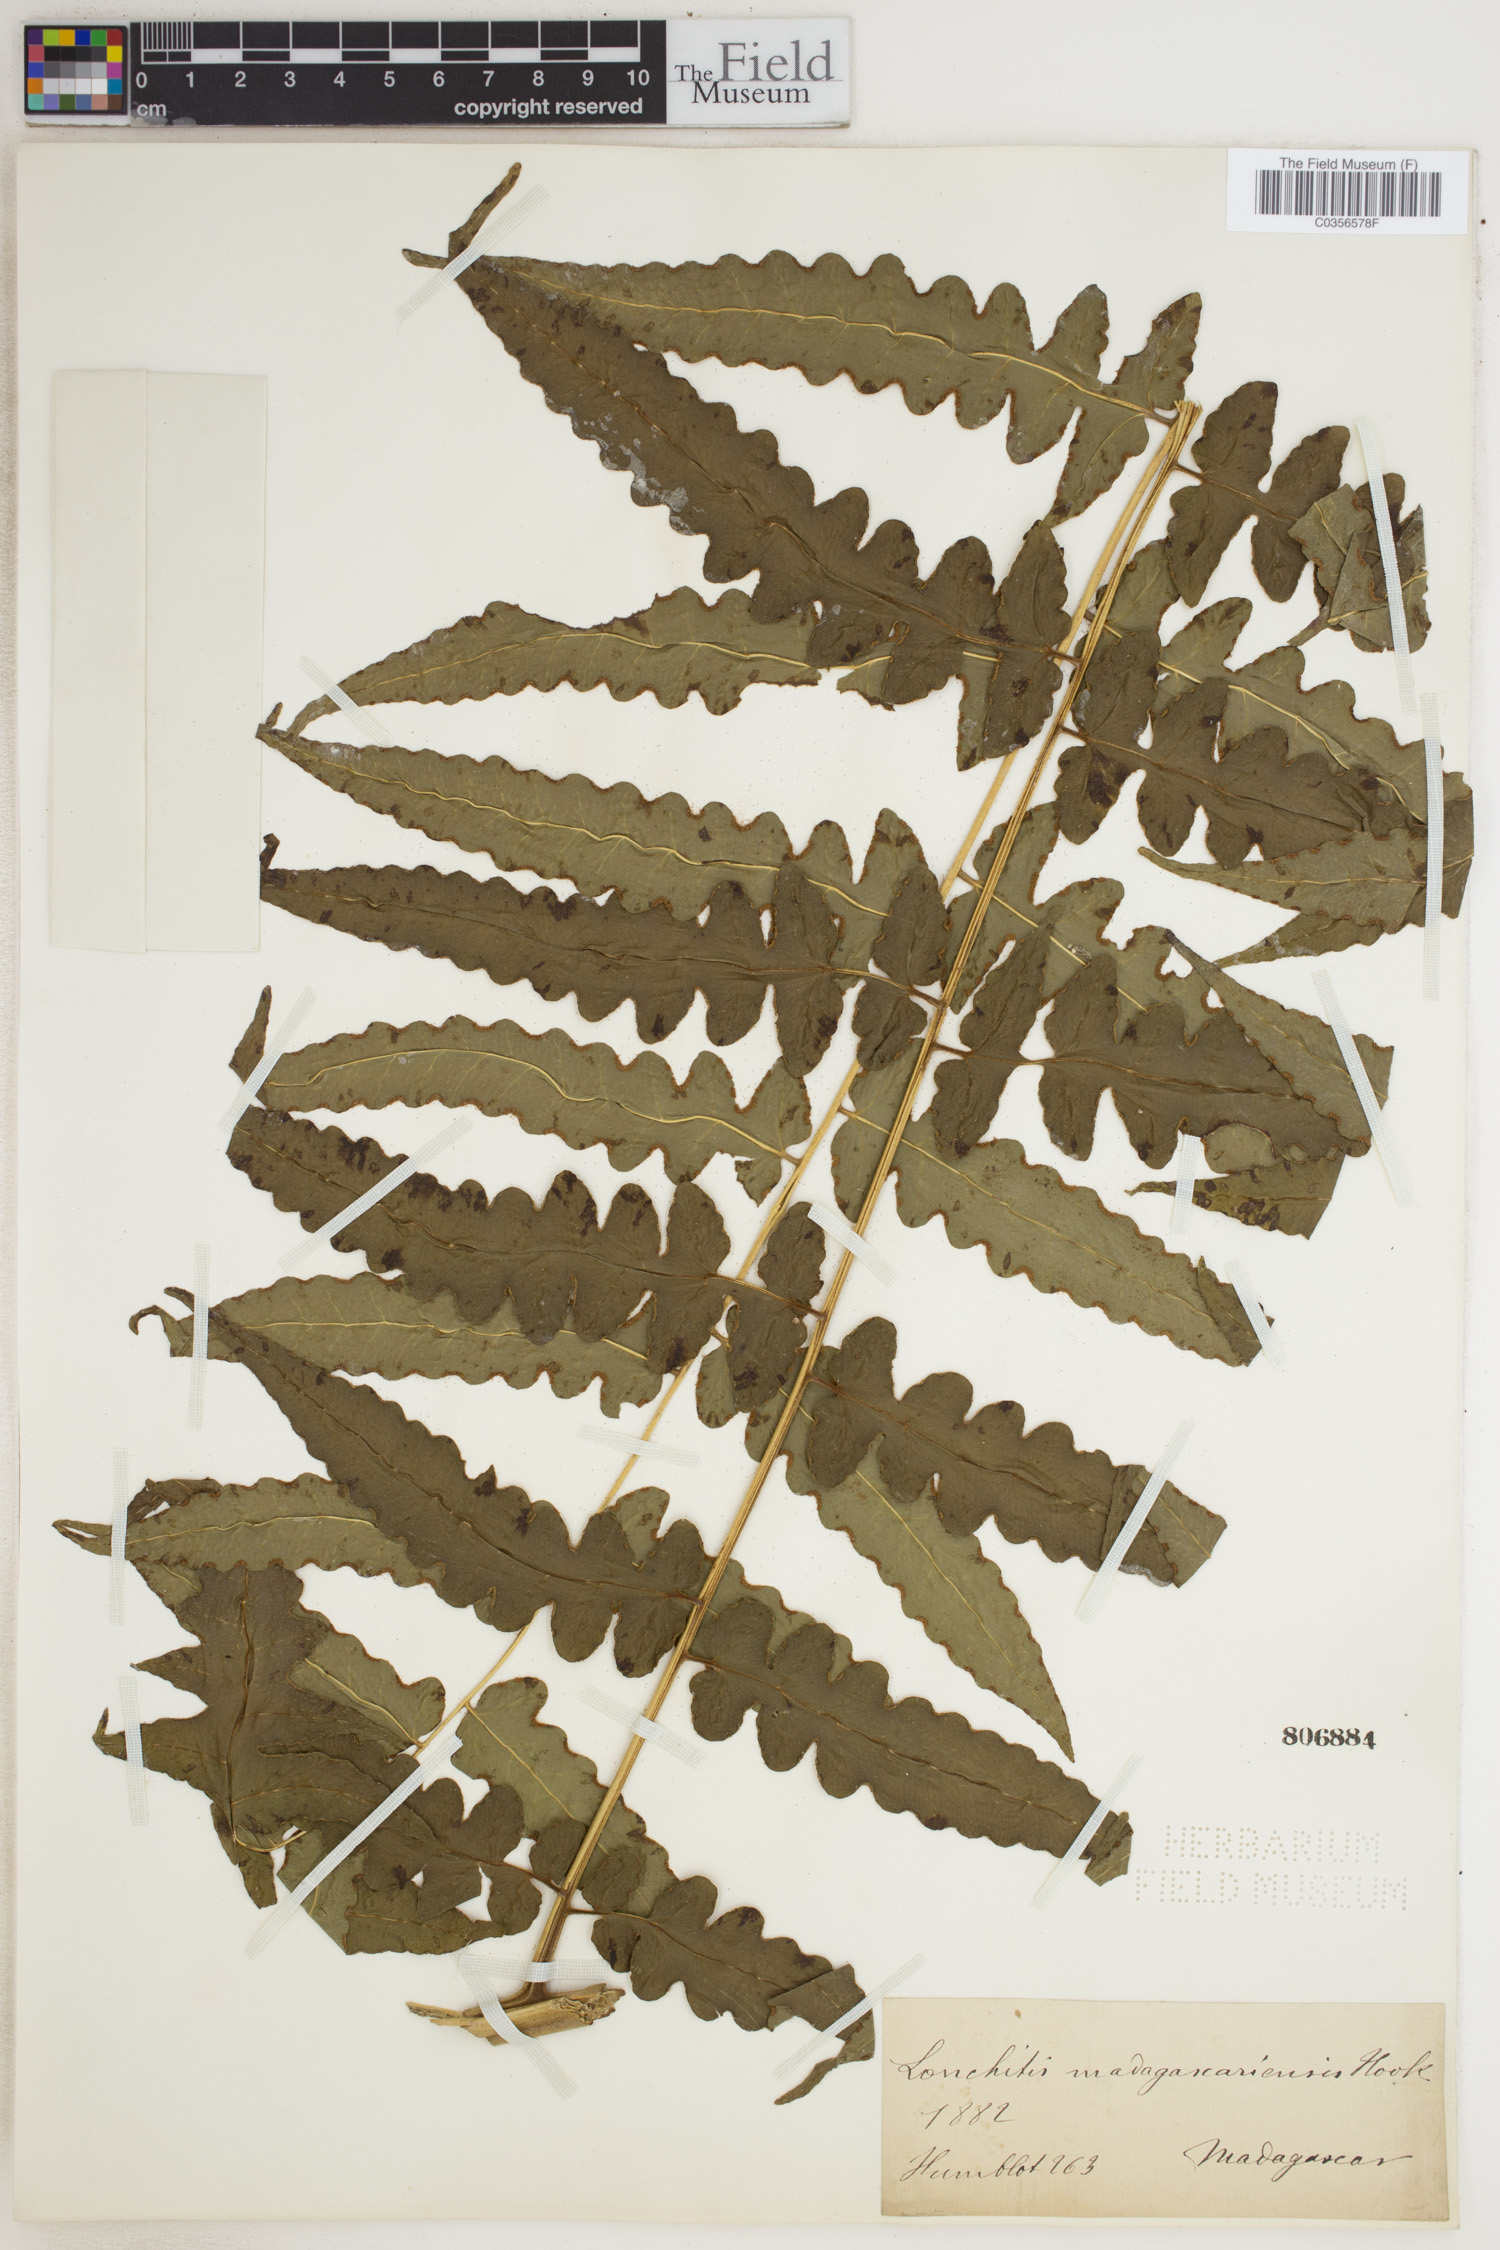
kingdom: Plantae
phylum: Tracheophyta
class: Polypodiopsida
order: Polypodiales
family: Dennstaedtiaceae
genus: Blotiella
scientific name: Blotiella madagascariensis
